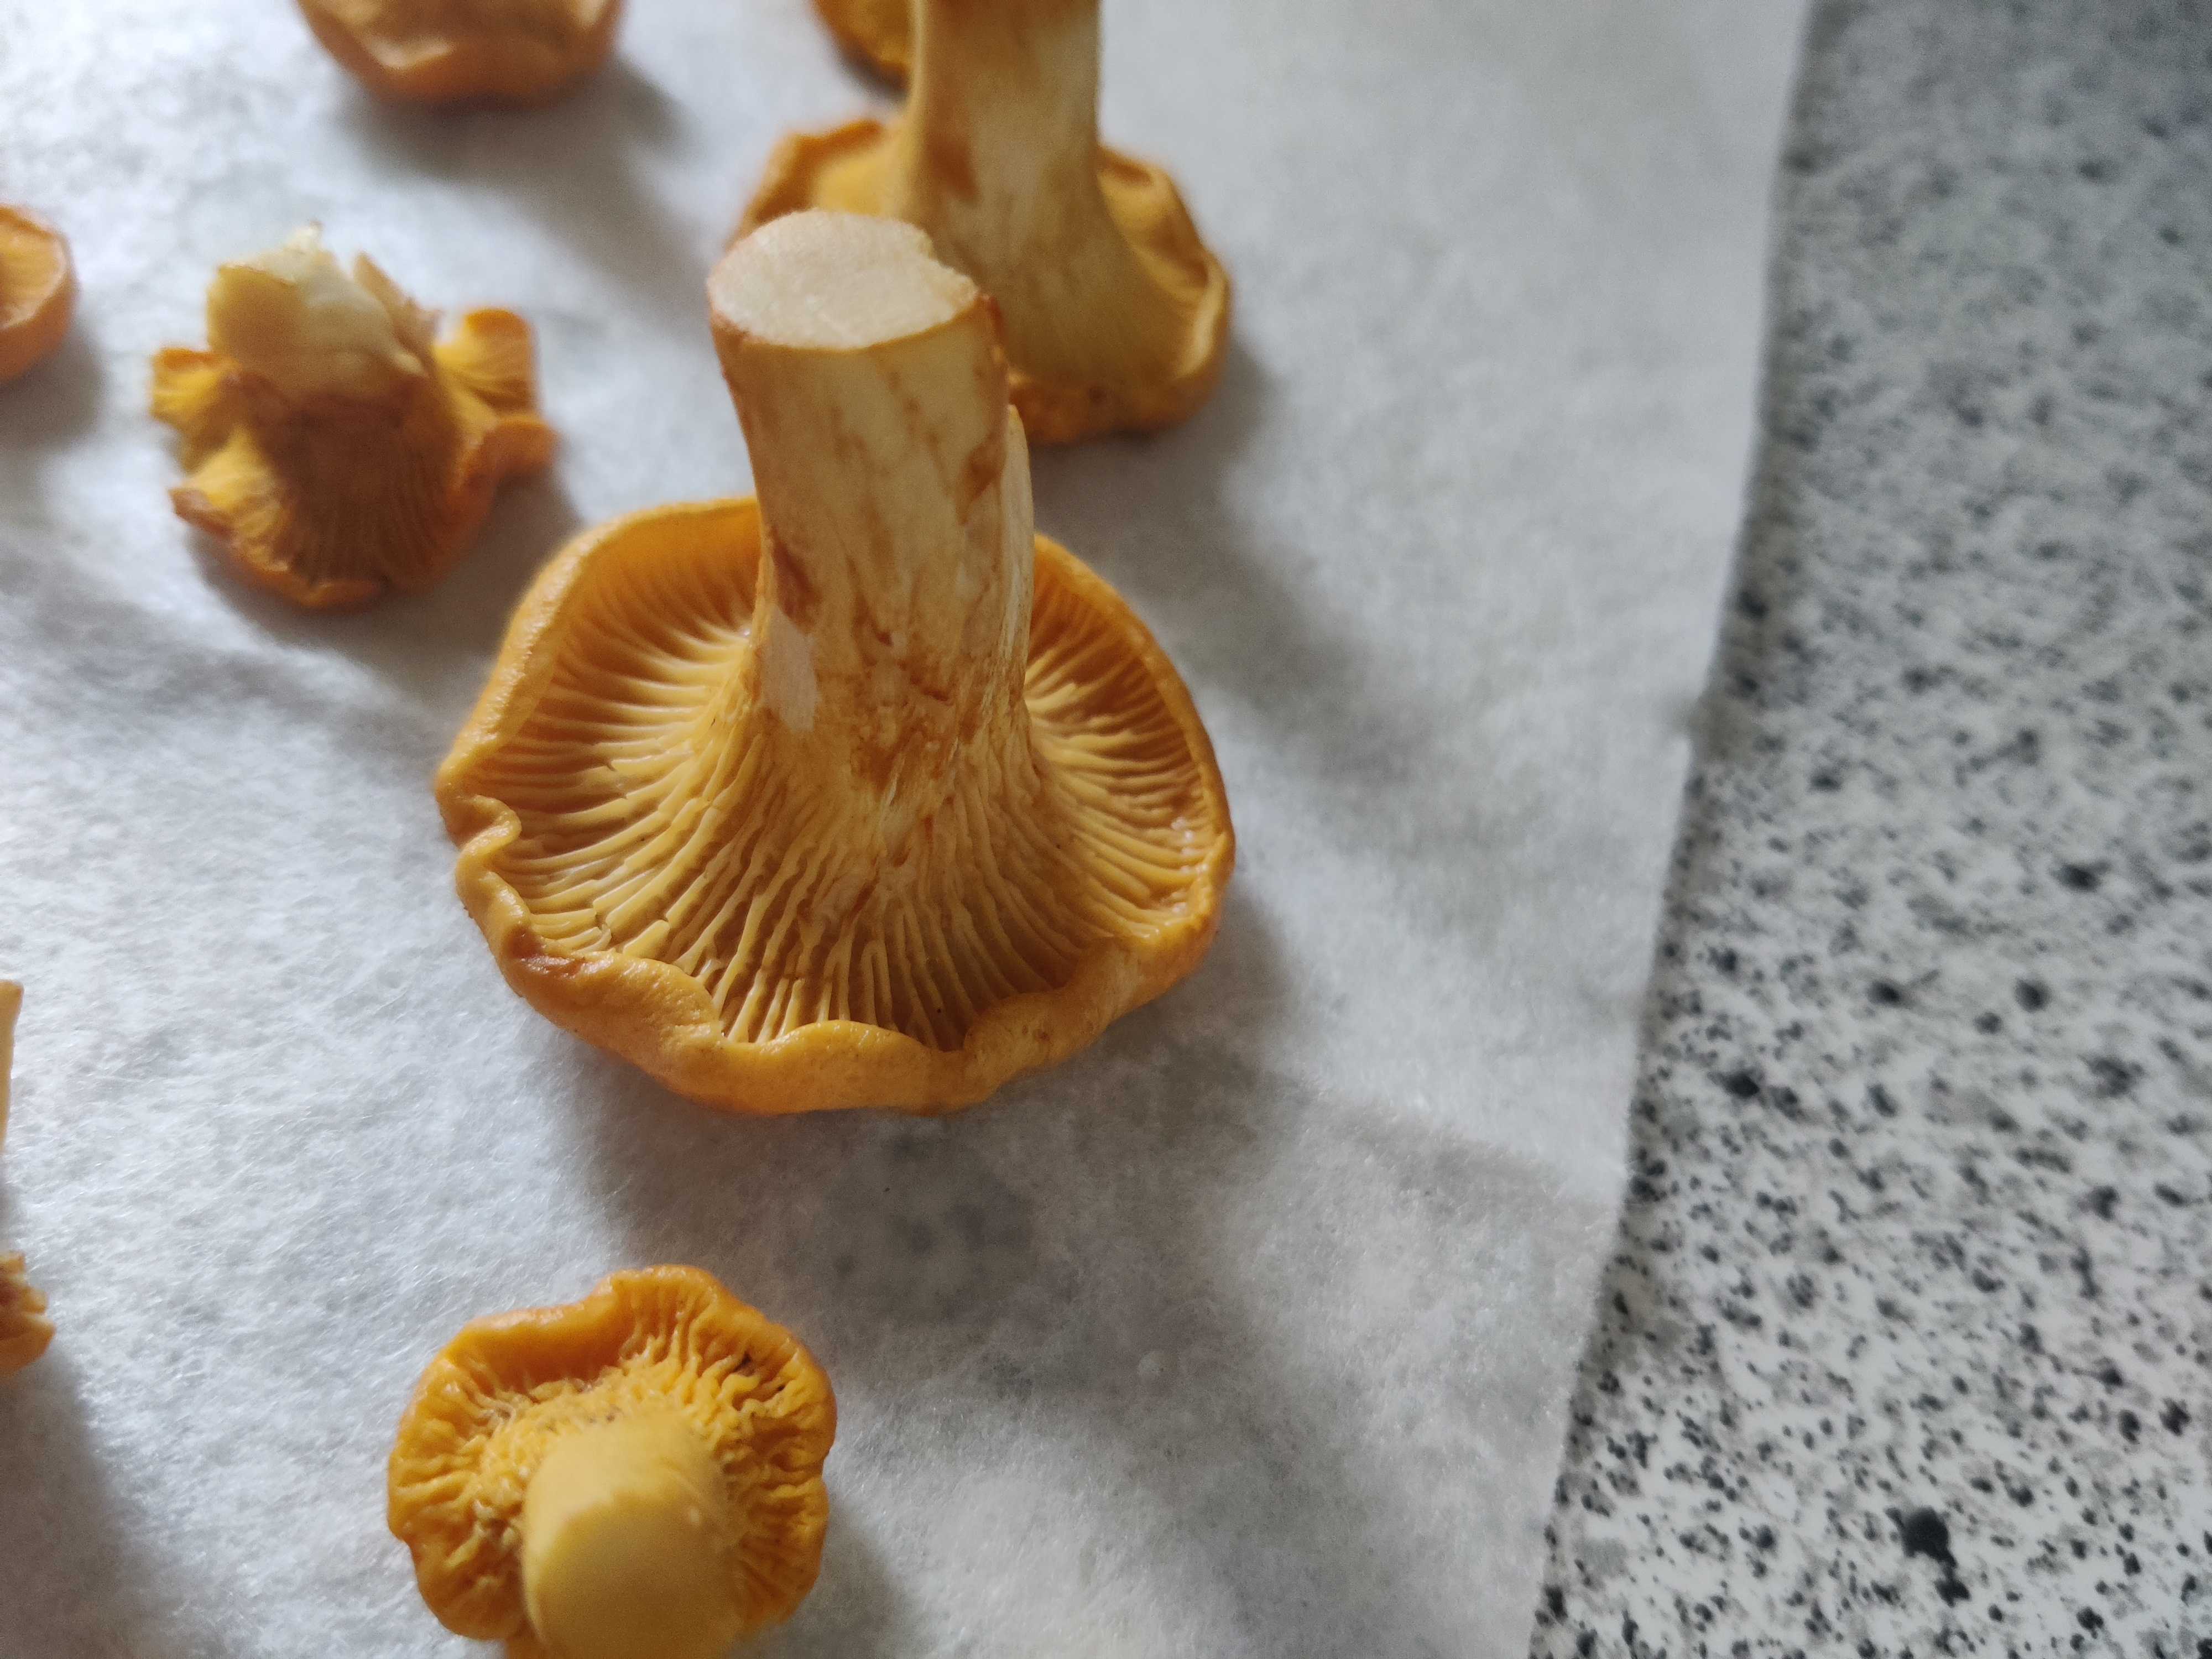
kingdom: Fungi
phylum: Basidiomycota
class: Agaricomycetes
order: Cantharellales
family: Hydnaceae
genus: Cantharellus
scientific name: Cantharellus cibarius
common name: almindelig kantarel
